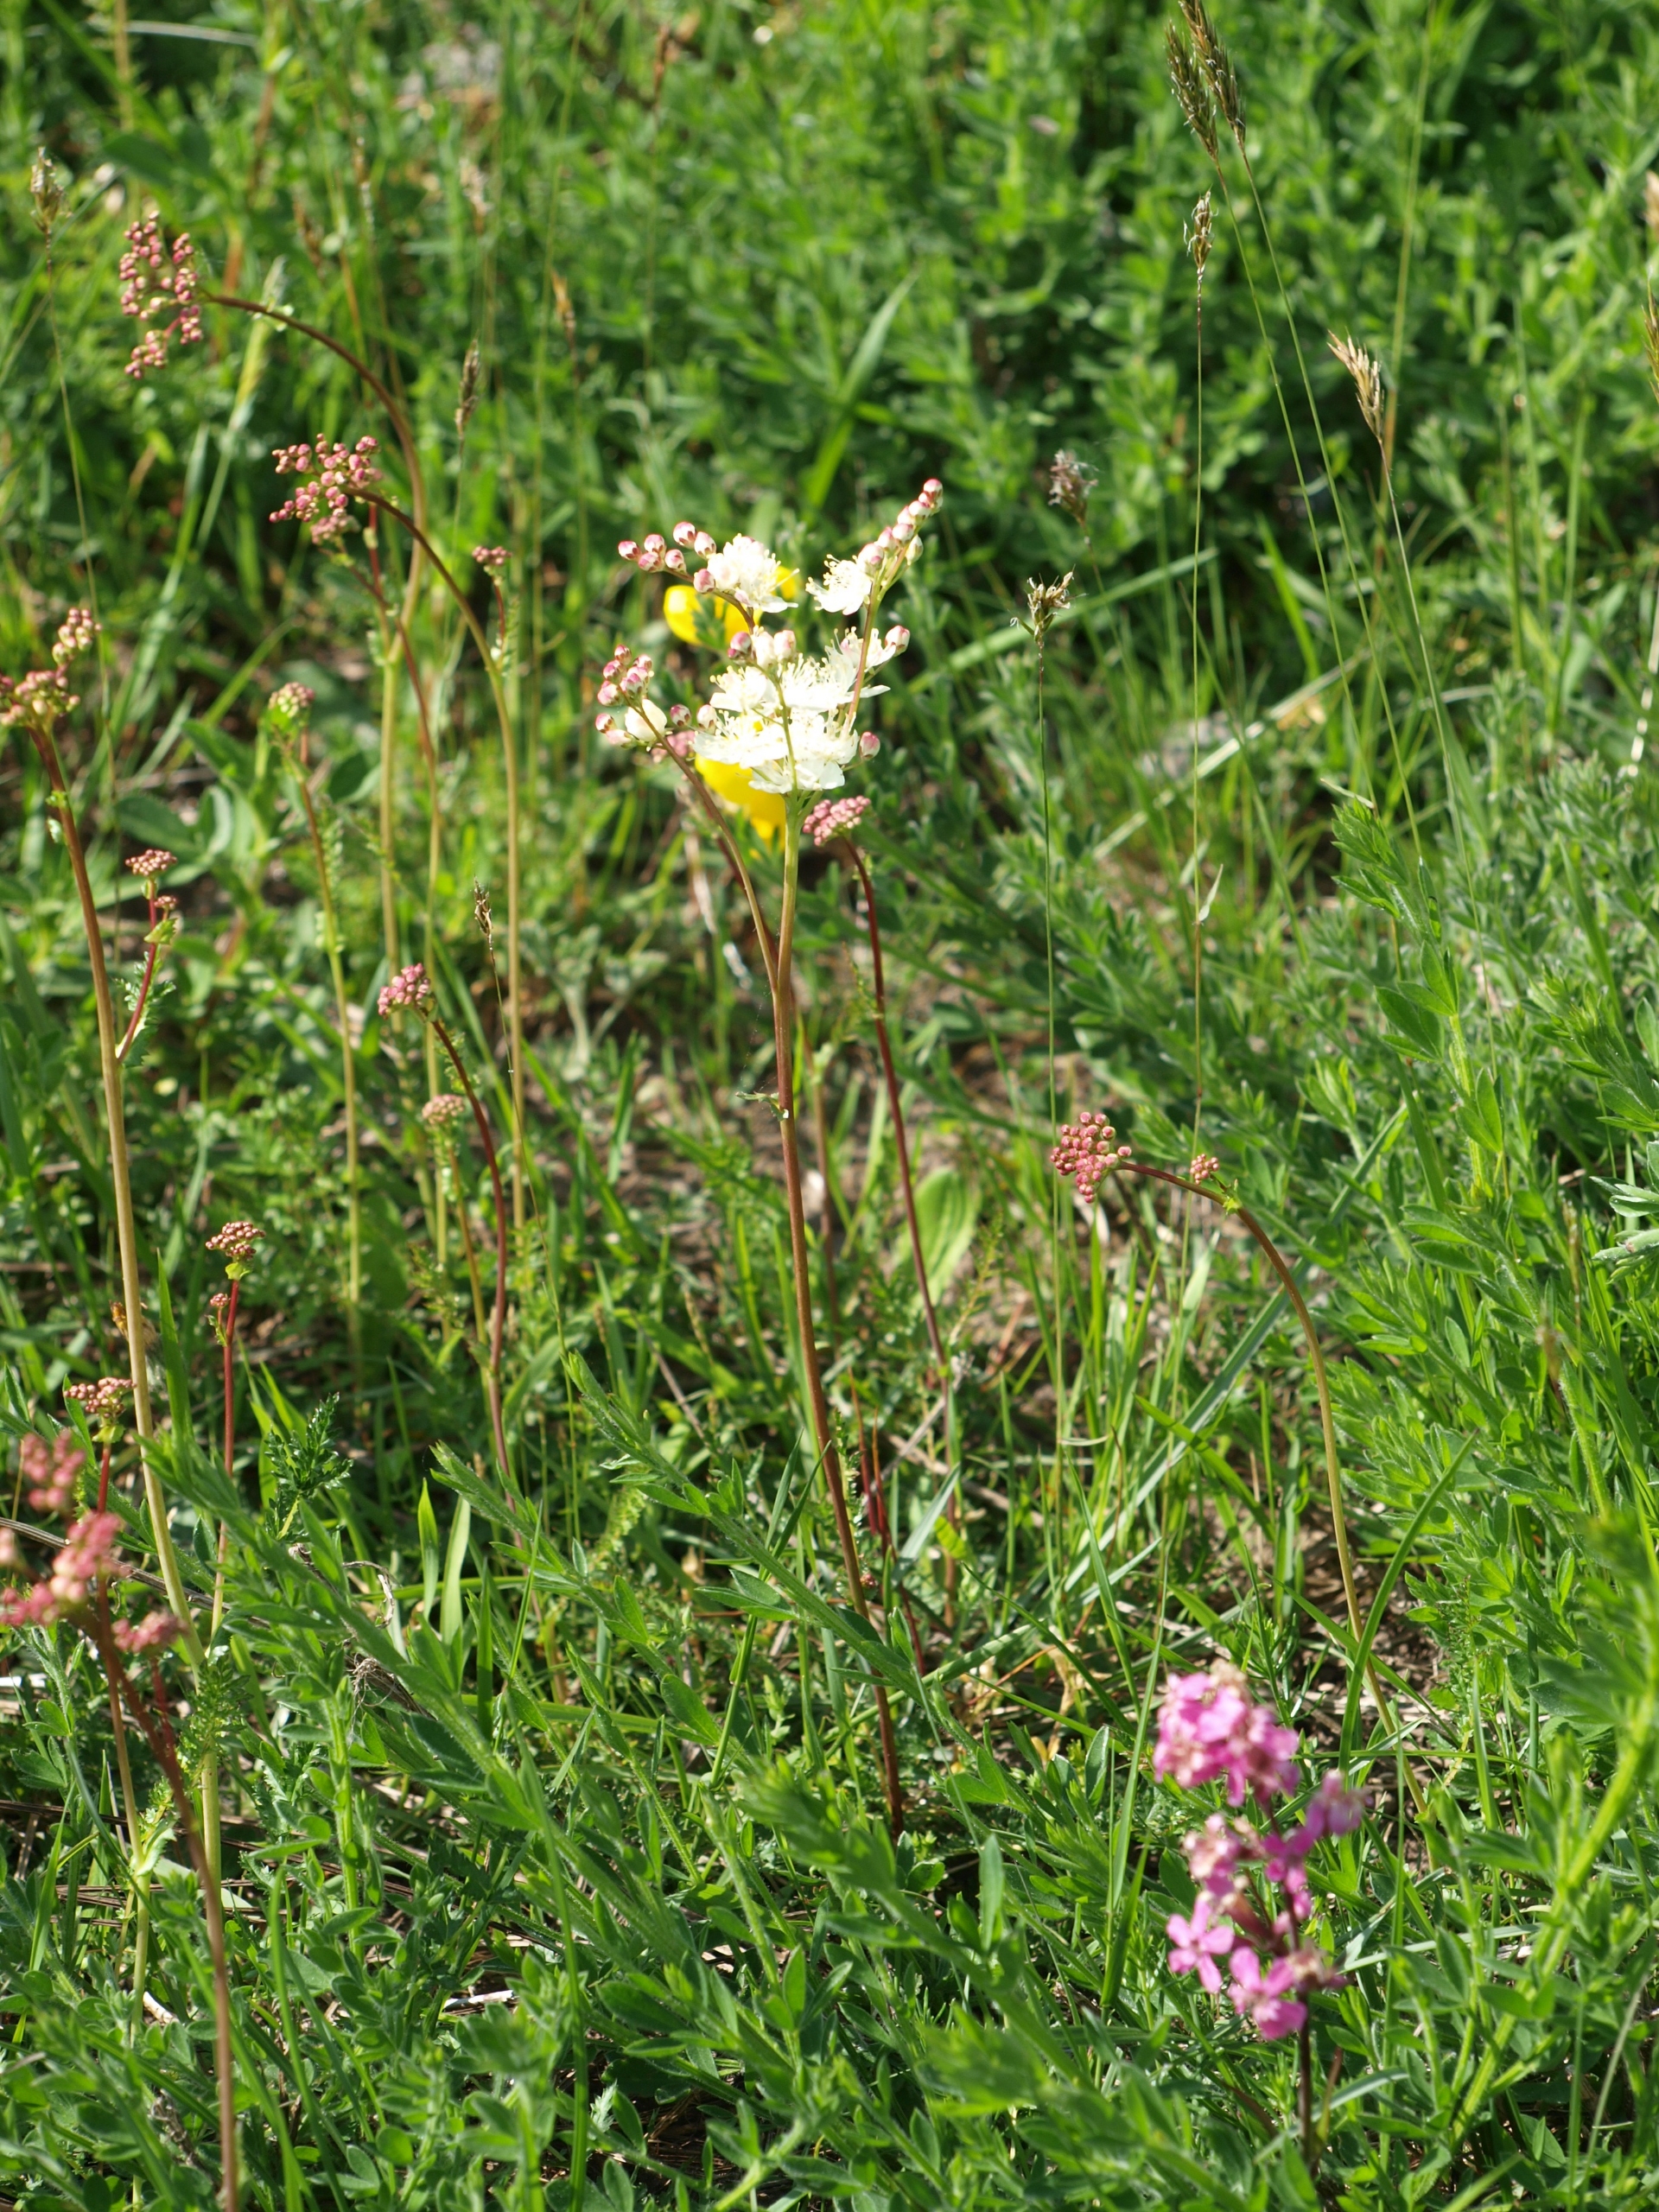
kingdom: Plantae
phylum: Tracheophyta
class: Magnoliopsida
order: Rosales
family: Rosaceae
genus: Filipendula
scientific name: Filipendula vulgaris
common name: Knoldet mjødurt
